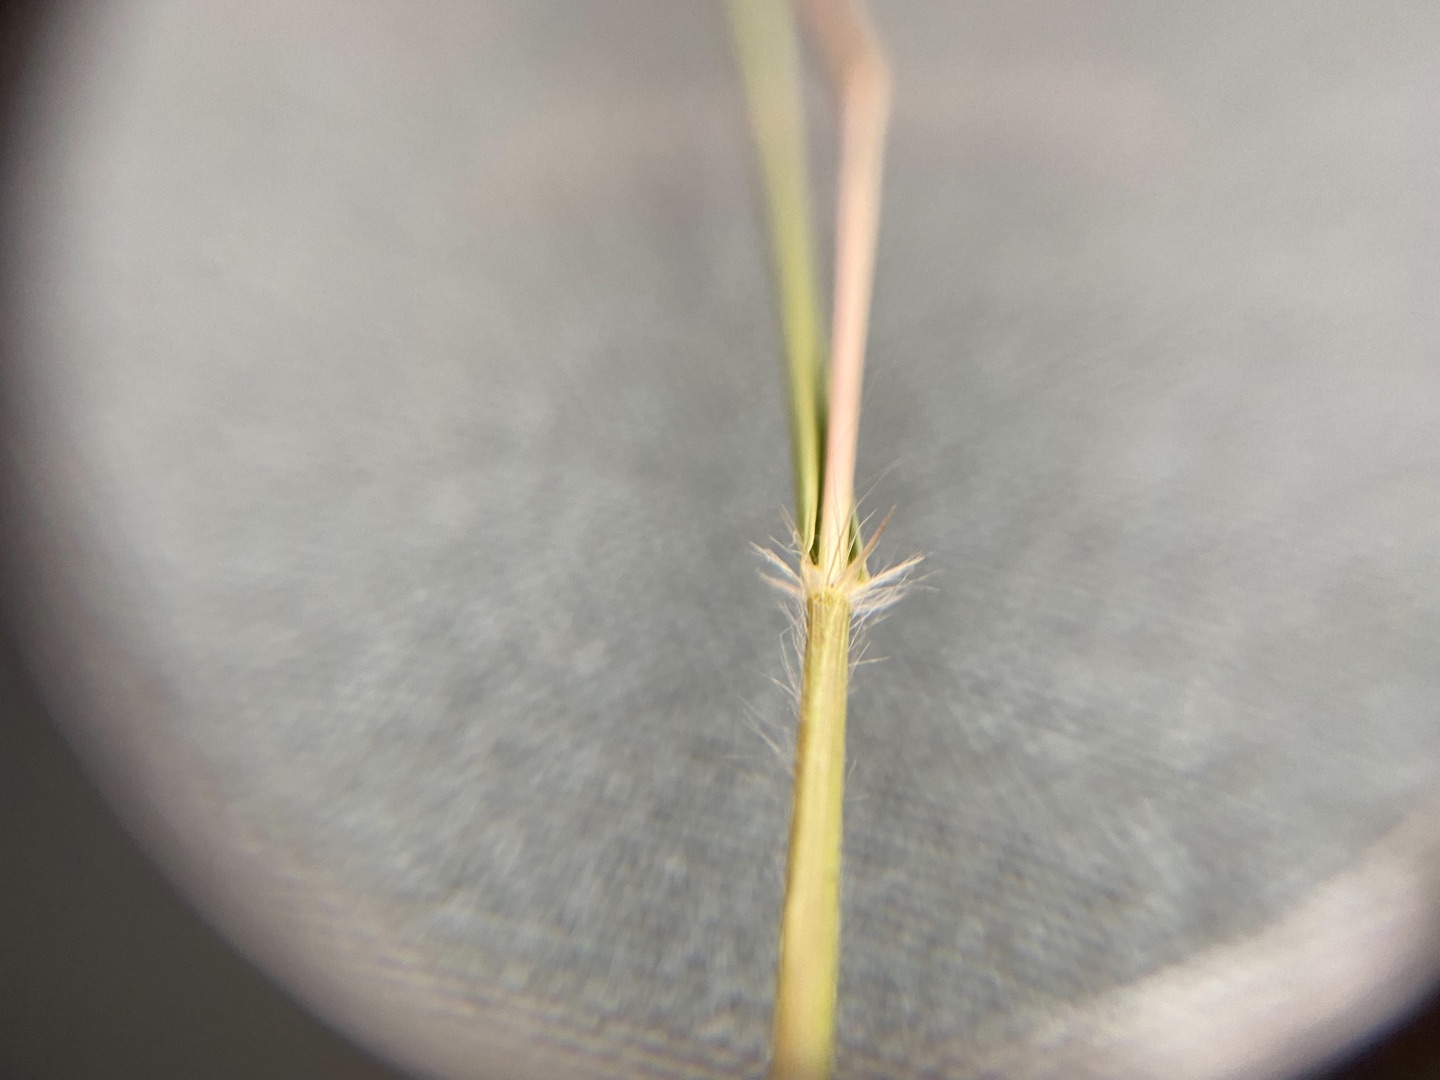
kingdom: Plantae
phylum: Tracheophyta
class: Liliopsida
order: Poales
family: Poaceae
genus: Danthonia
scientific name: Danthonia decumbens
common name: Tandbælg
